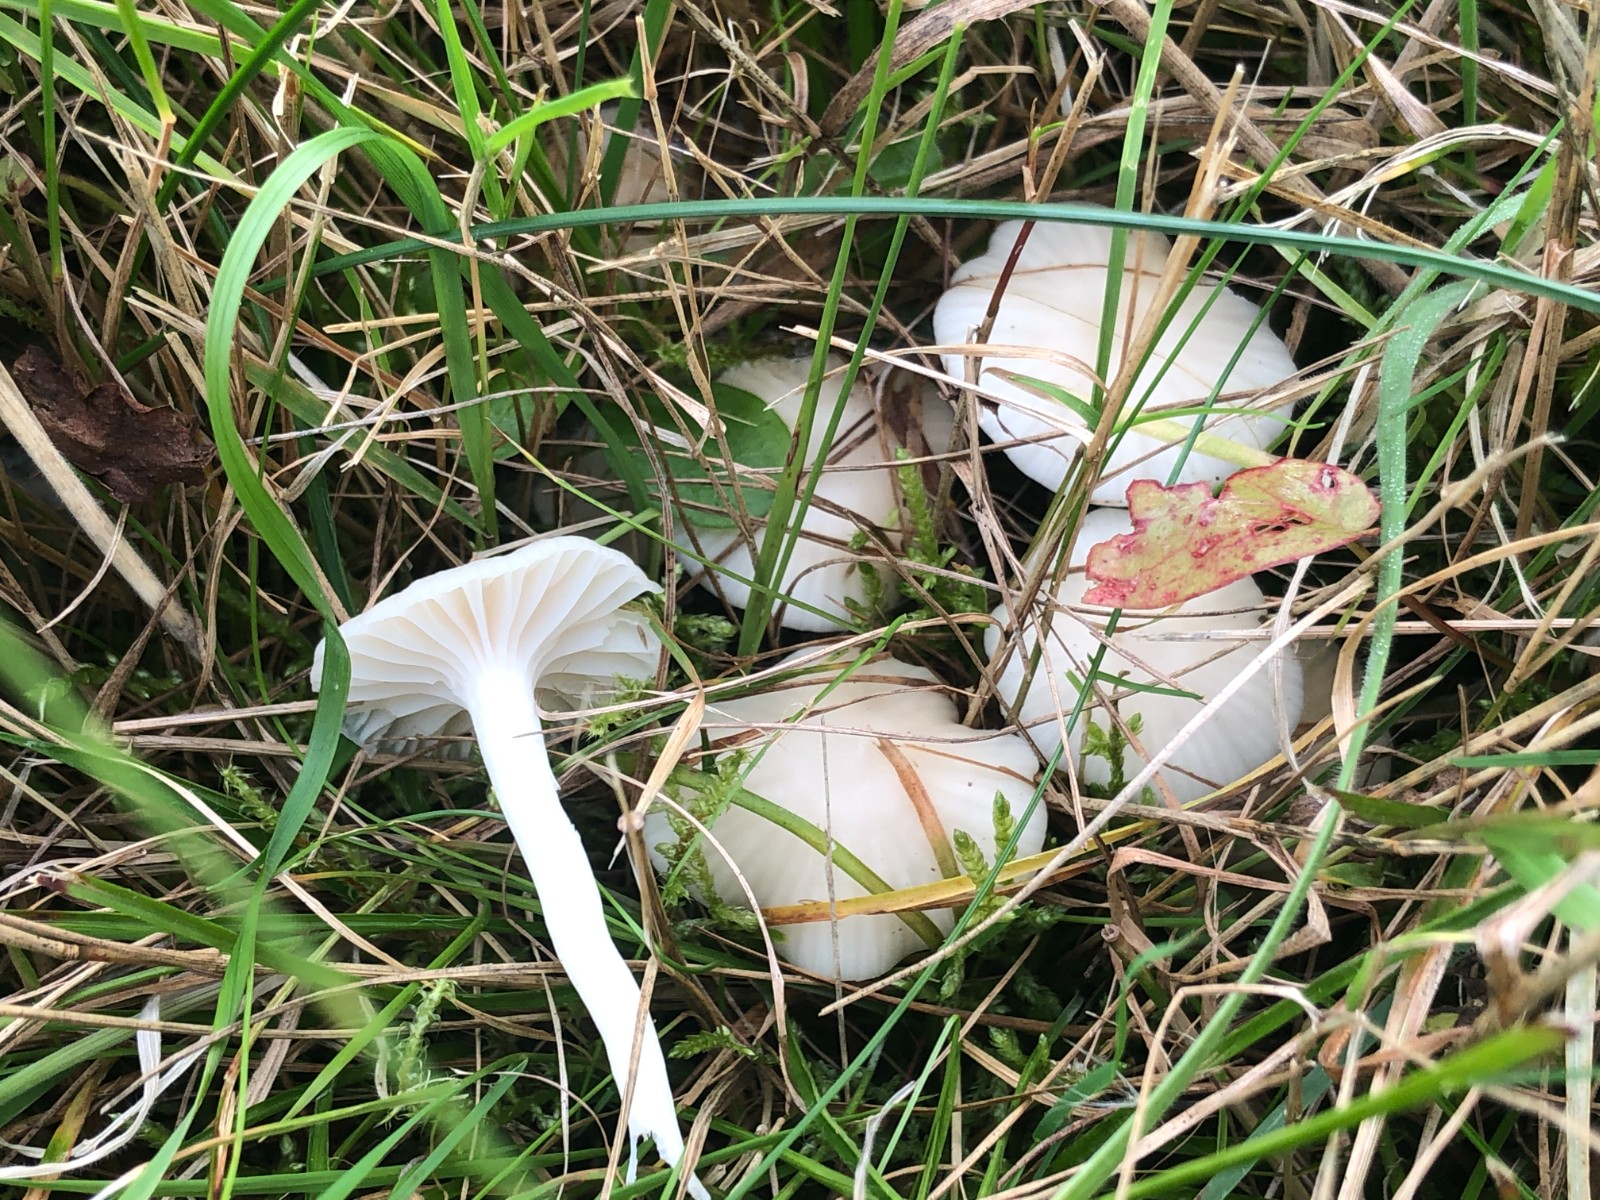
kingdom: Fungi
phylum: Basidiomycota
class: Agaricomycetes
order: Agaricales
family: Hygrophoraceae
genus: Cuphophyllus
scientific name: Cuphophyllus virgineus
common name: snehvid vokshat
